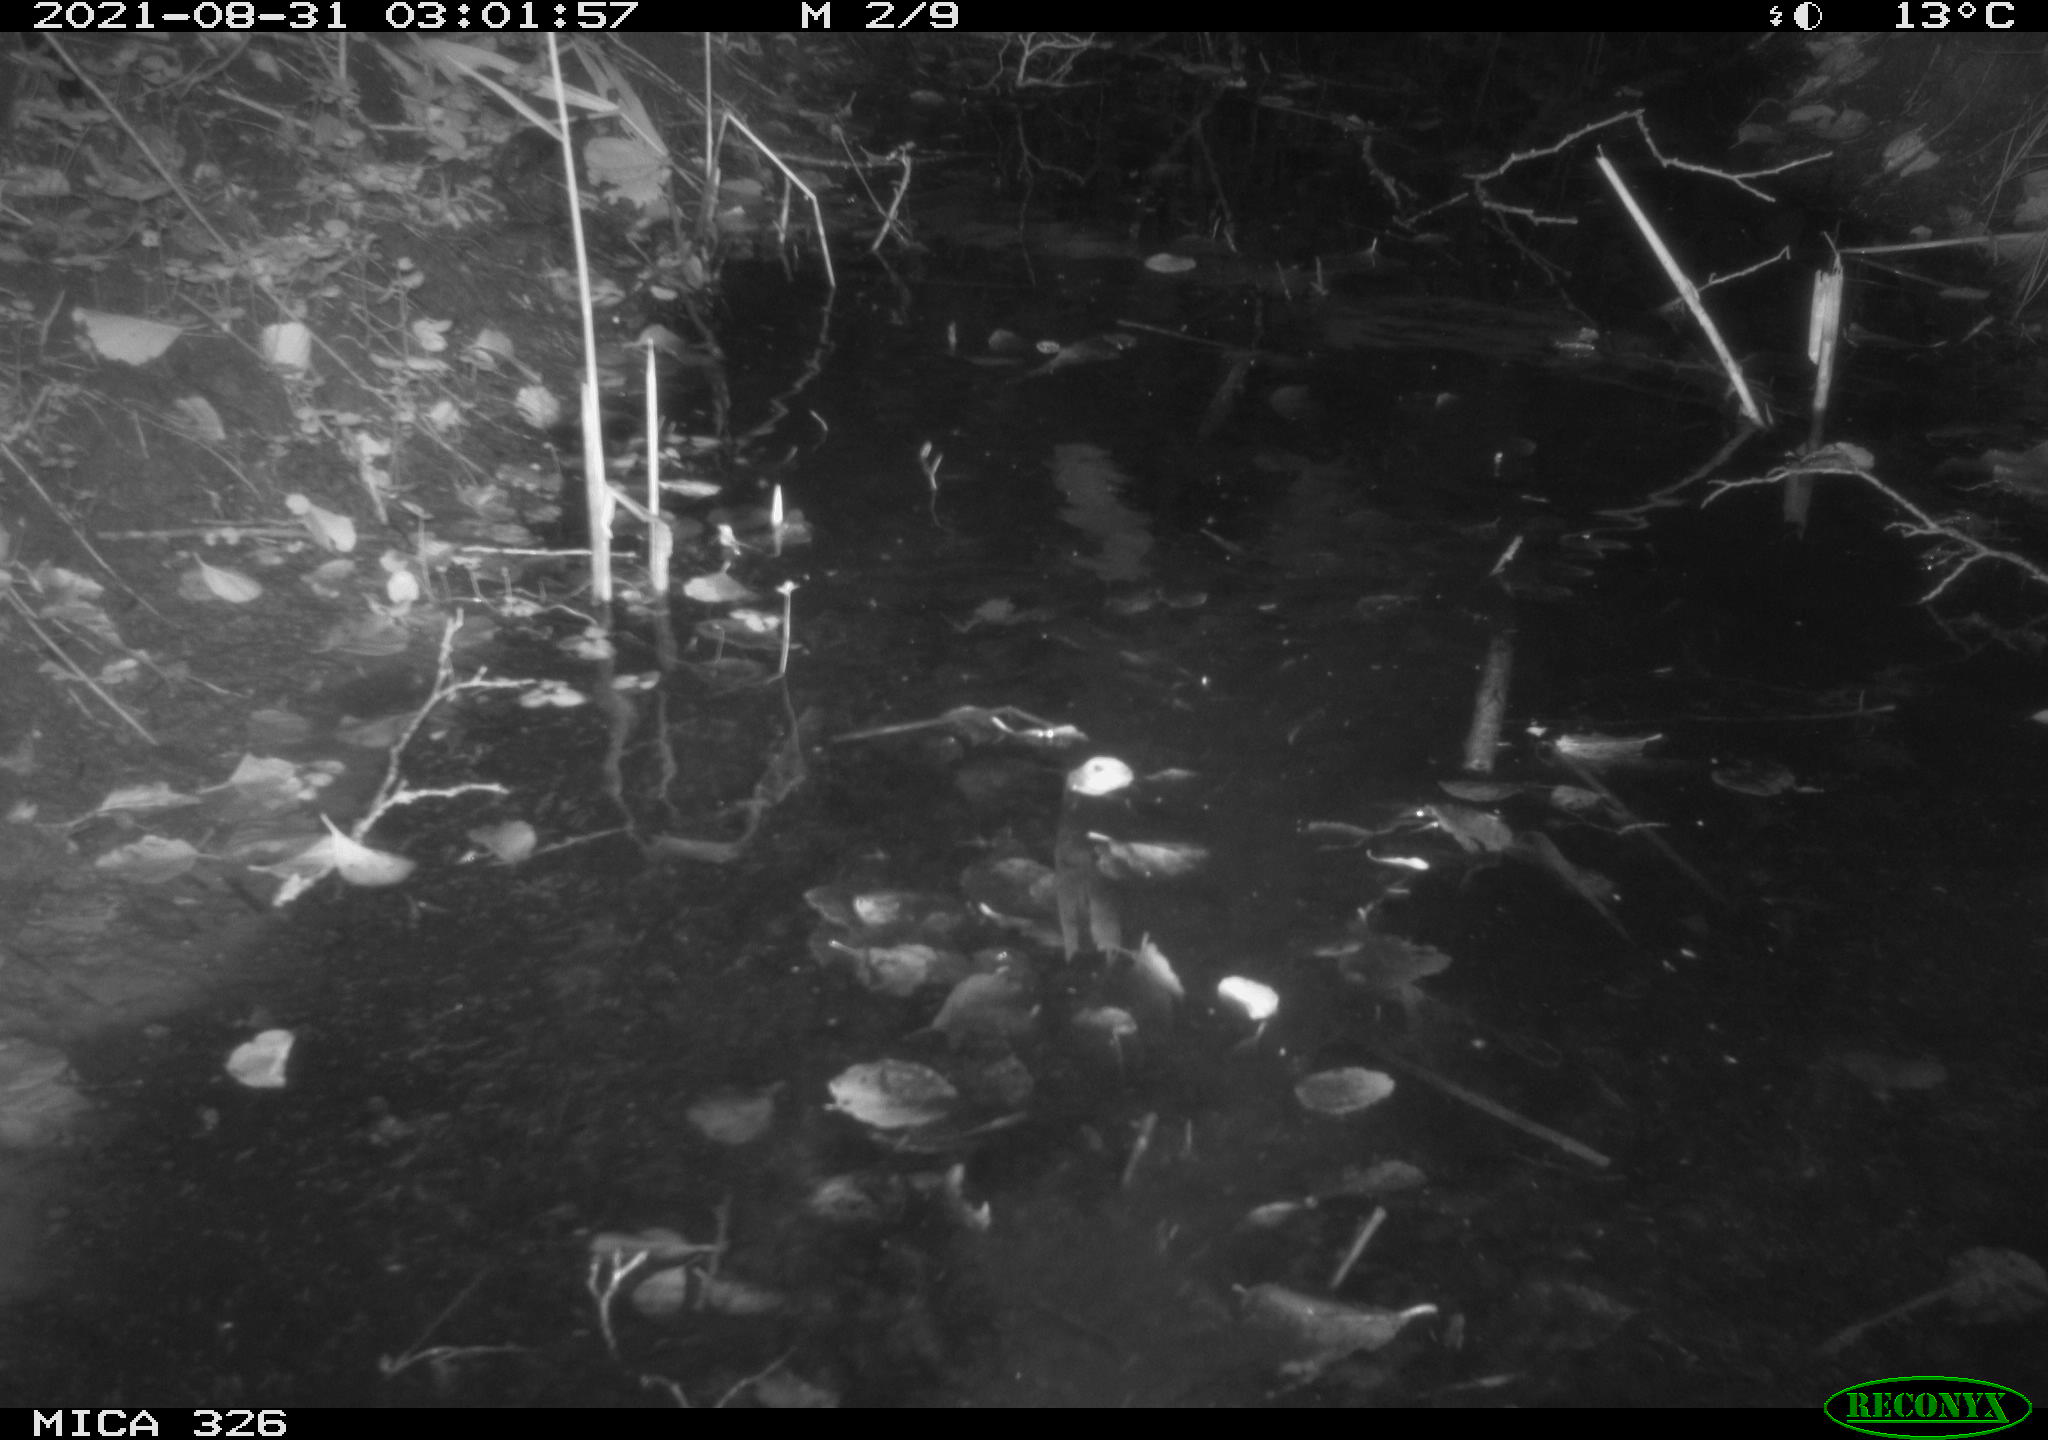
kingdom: Animalia
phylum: Chordata
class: Mammalia
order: Rodentia
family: Cricetidae
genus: Ondatra
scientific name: Ondatra zibethicus
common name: Muskrat
